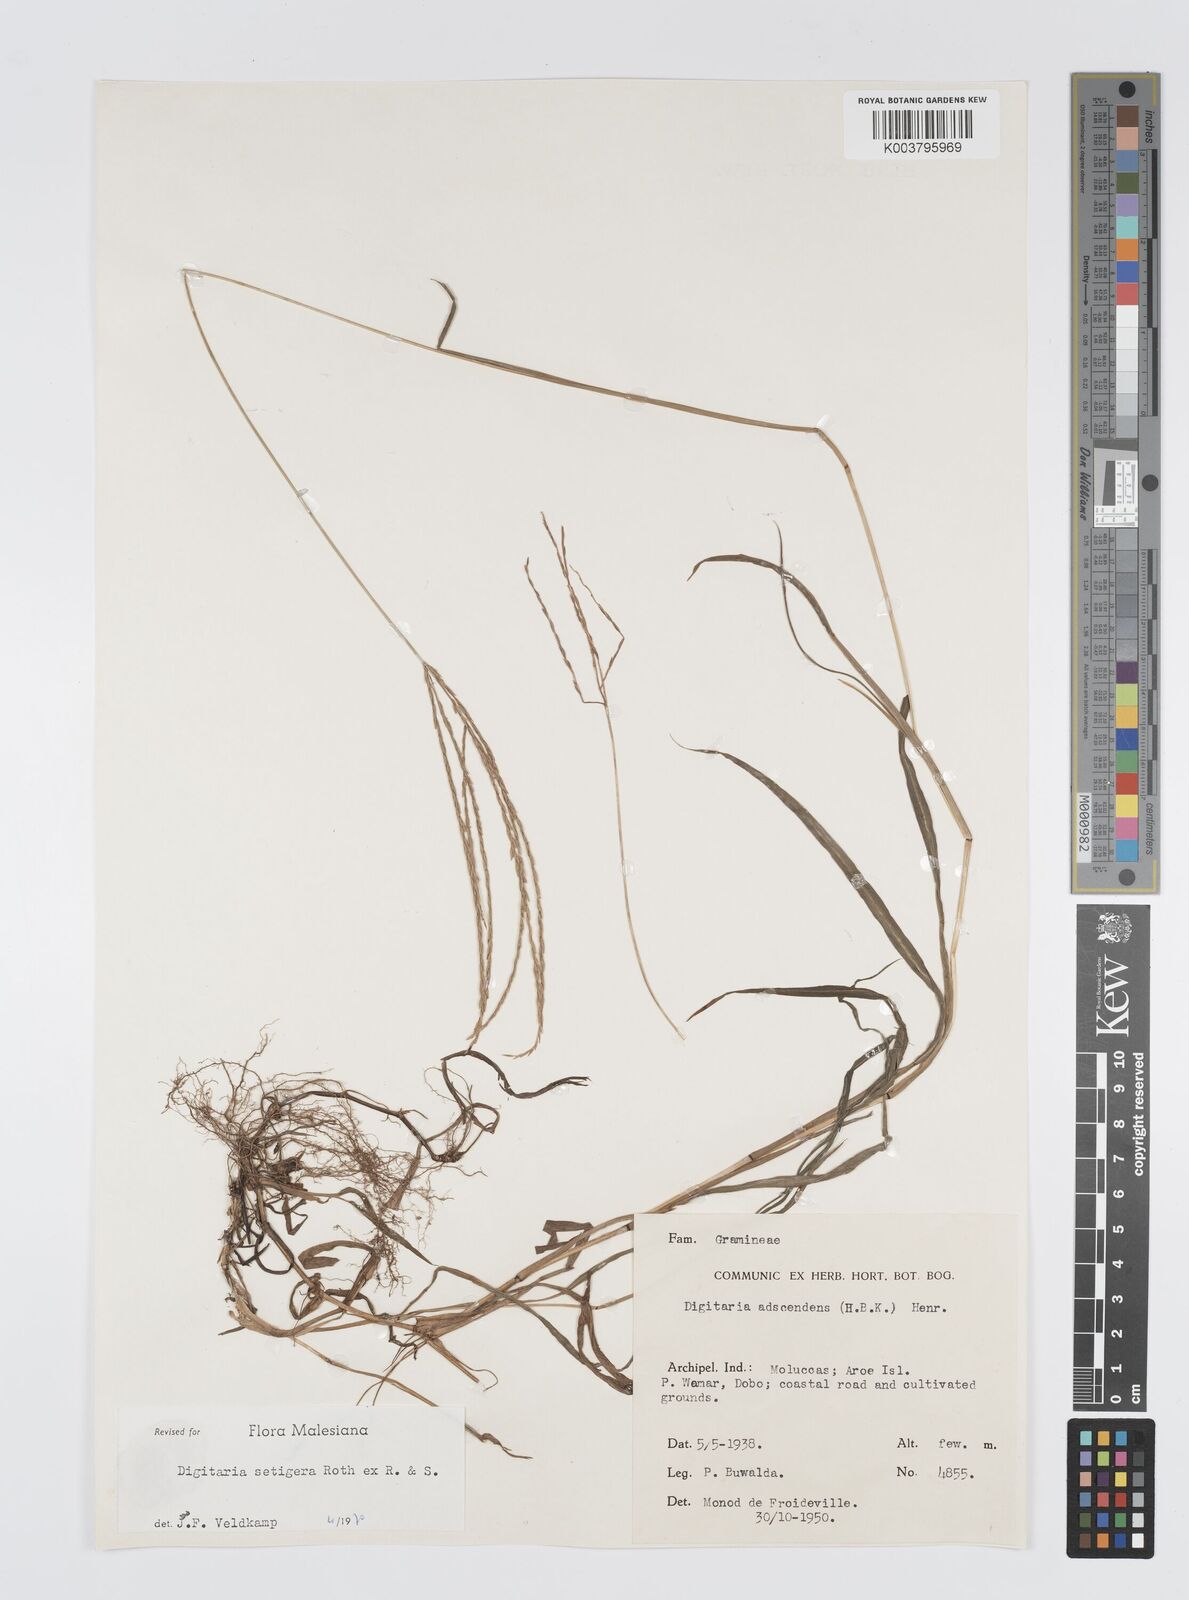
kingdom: Plantae
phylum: Tracheophyta
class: Liliopsida
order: Poales
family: Poaceae
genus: Digitaria
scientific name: Digitaria setigera
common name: East indian crabgrass
